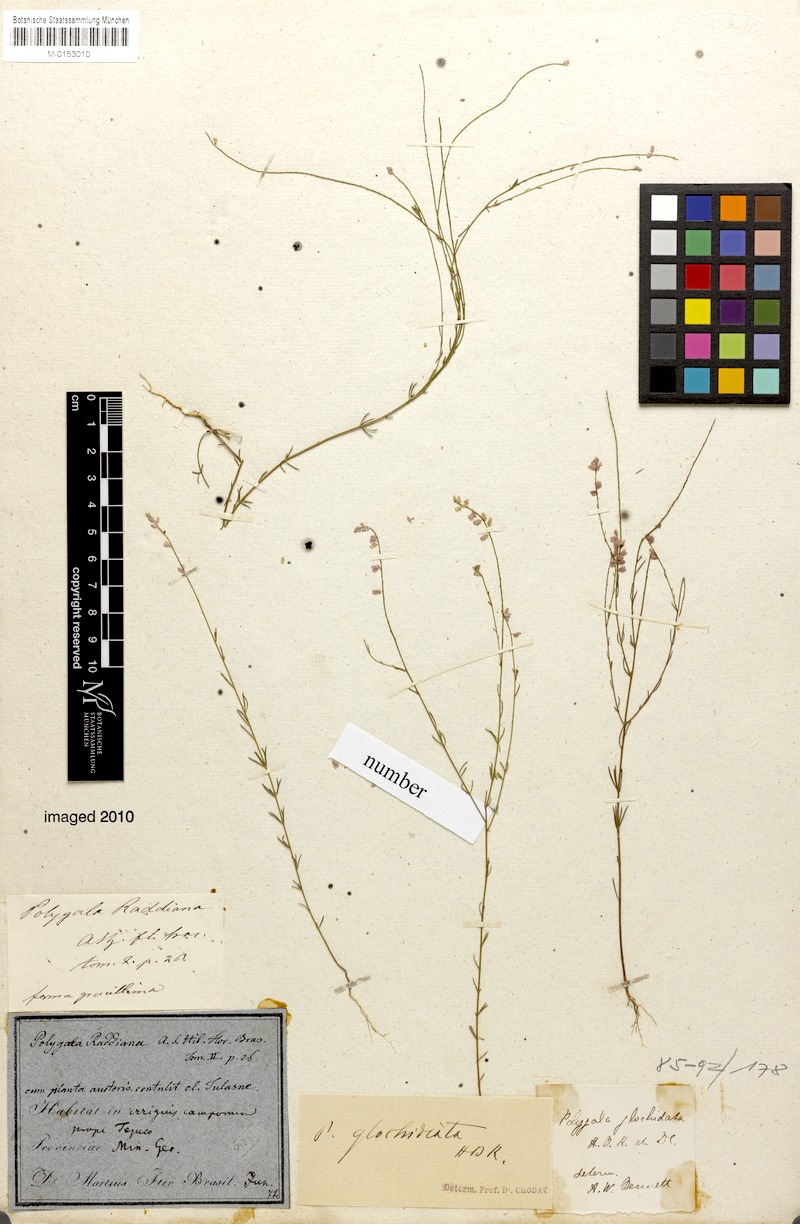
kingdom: Plantae
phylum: Tracheophyta
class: Magnoliopsida
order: Fabales
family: Polygalaceae
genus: Polygala
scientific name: Polygala glochidiata
